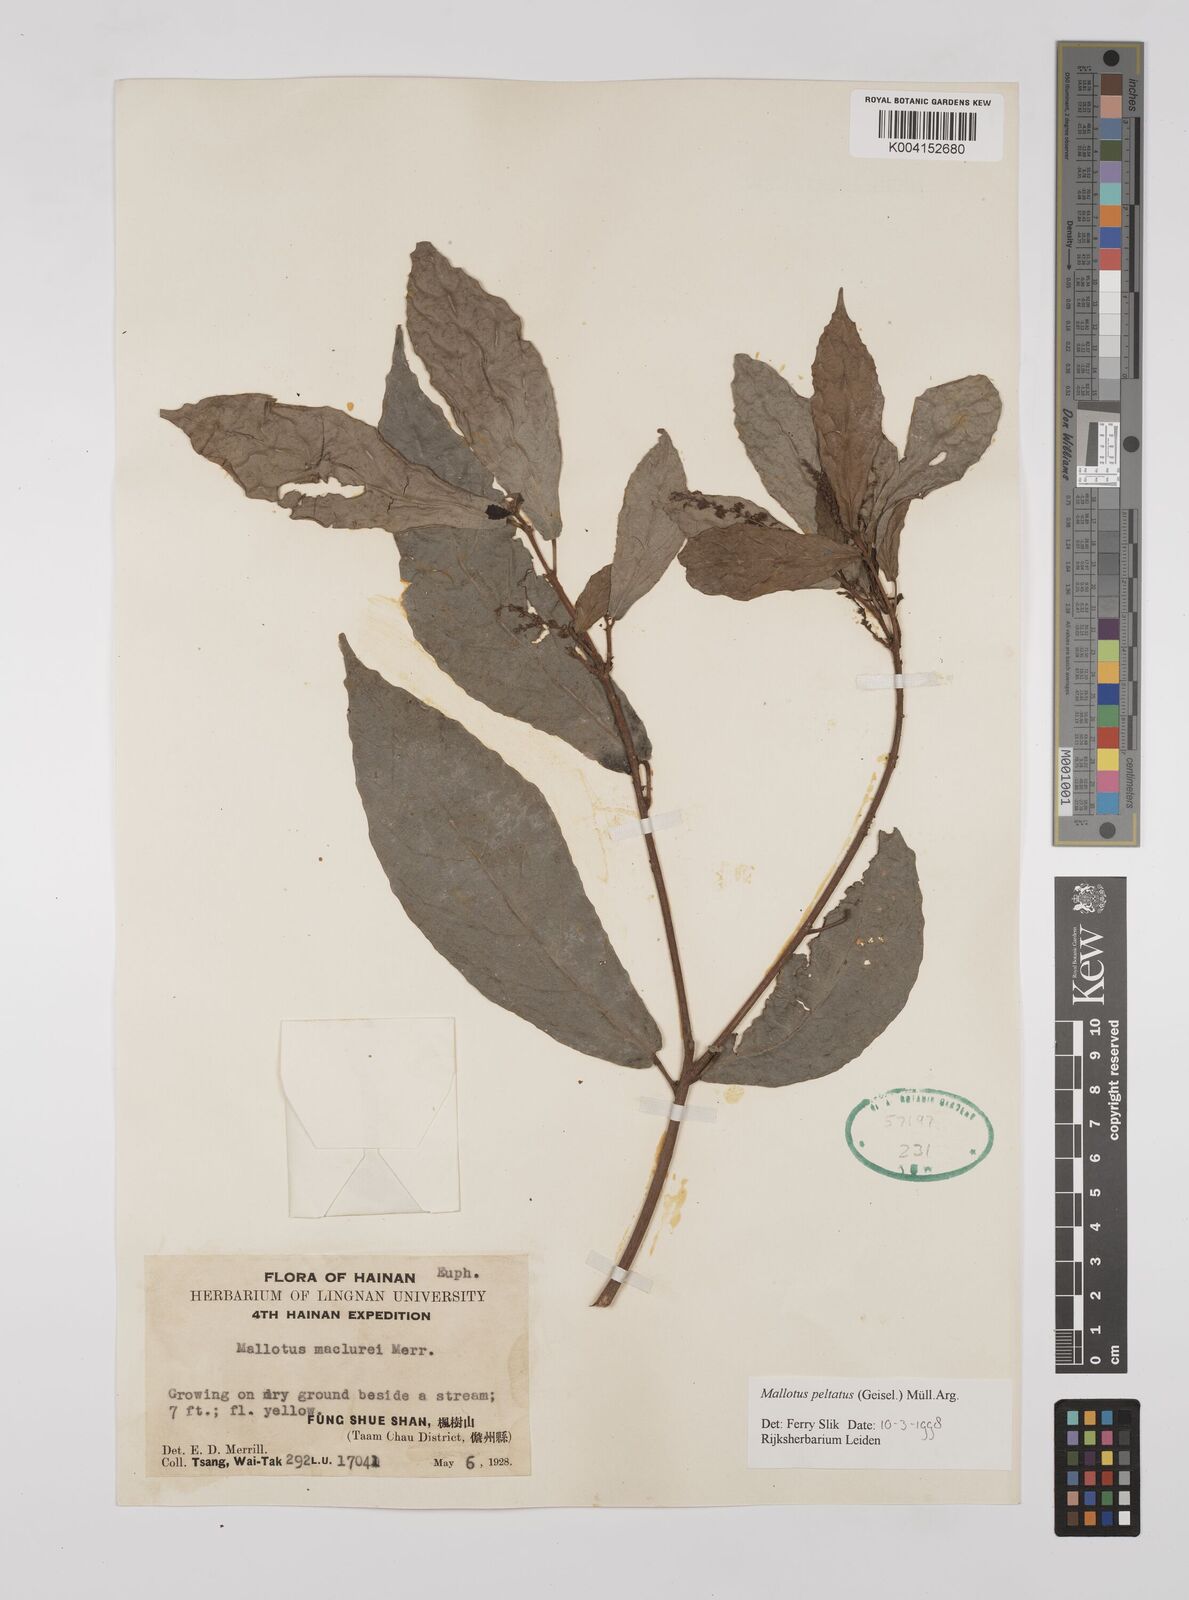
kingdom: Plantae
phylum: Tracheophyta
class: Magnoliopsida
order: Malpighiales
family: Euphorbiaceae
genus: Mallotus
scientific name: Mallotus peltatus
